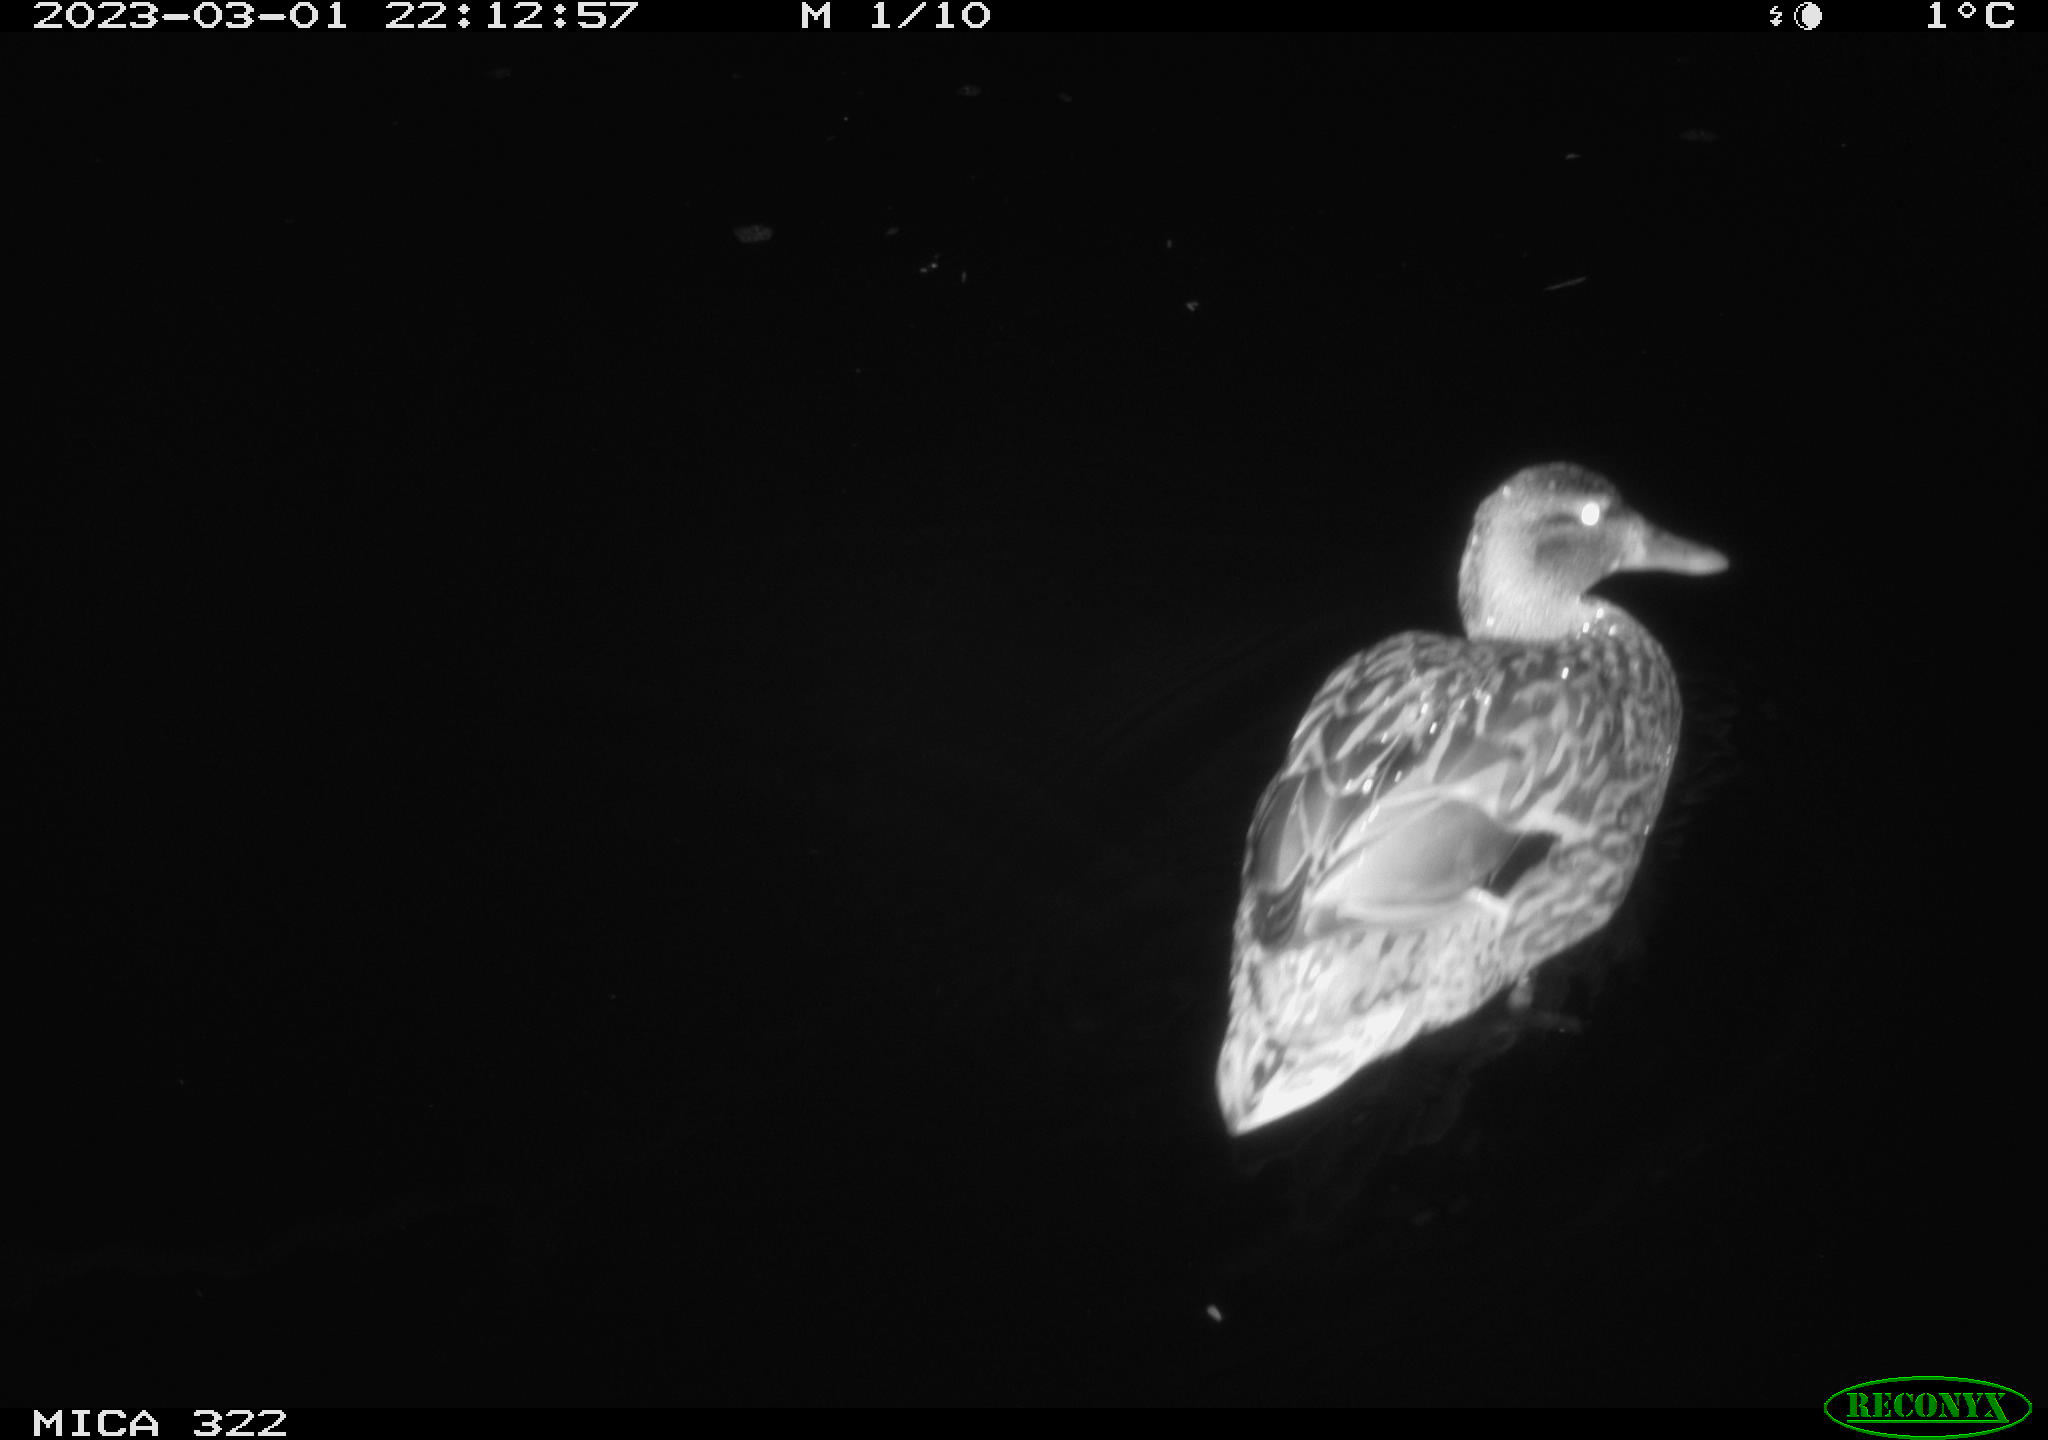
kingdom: Animalia
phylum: Chordata
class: Aves
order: Anseriformes
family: Anatidae
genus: Anas
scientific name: Anas
